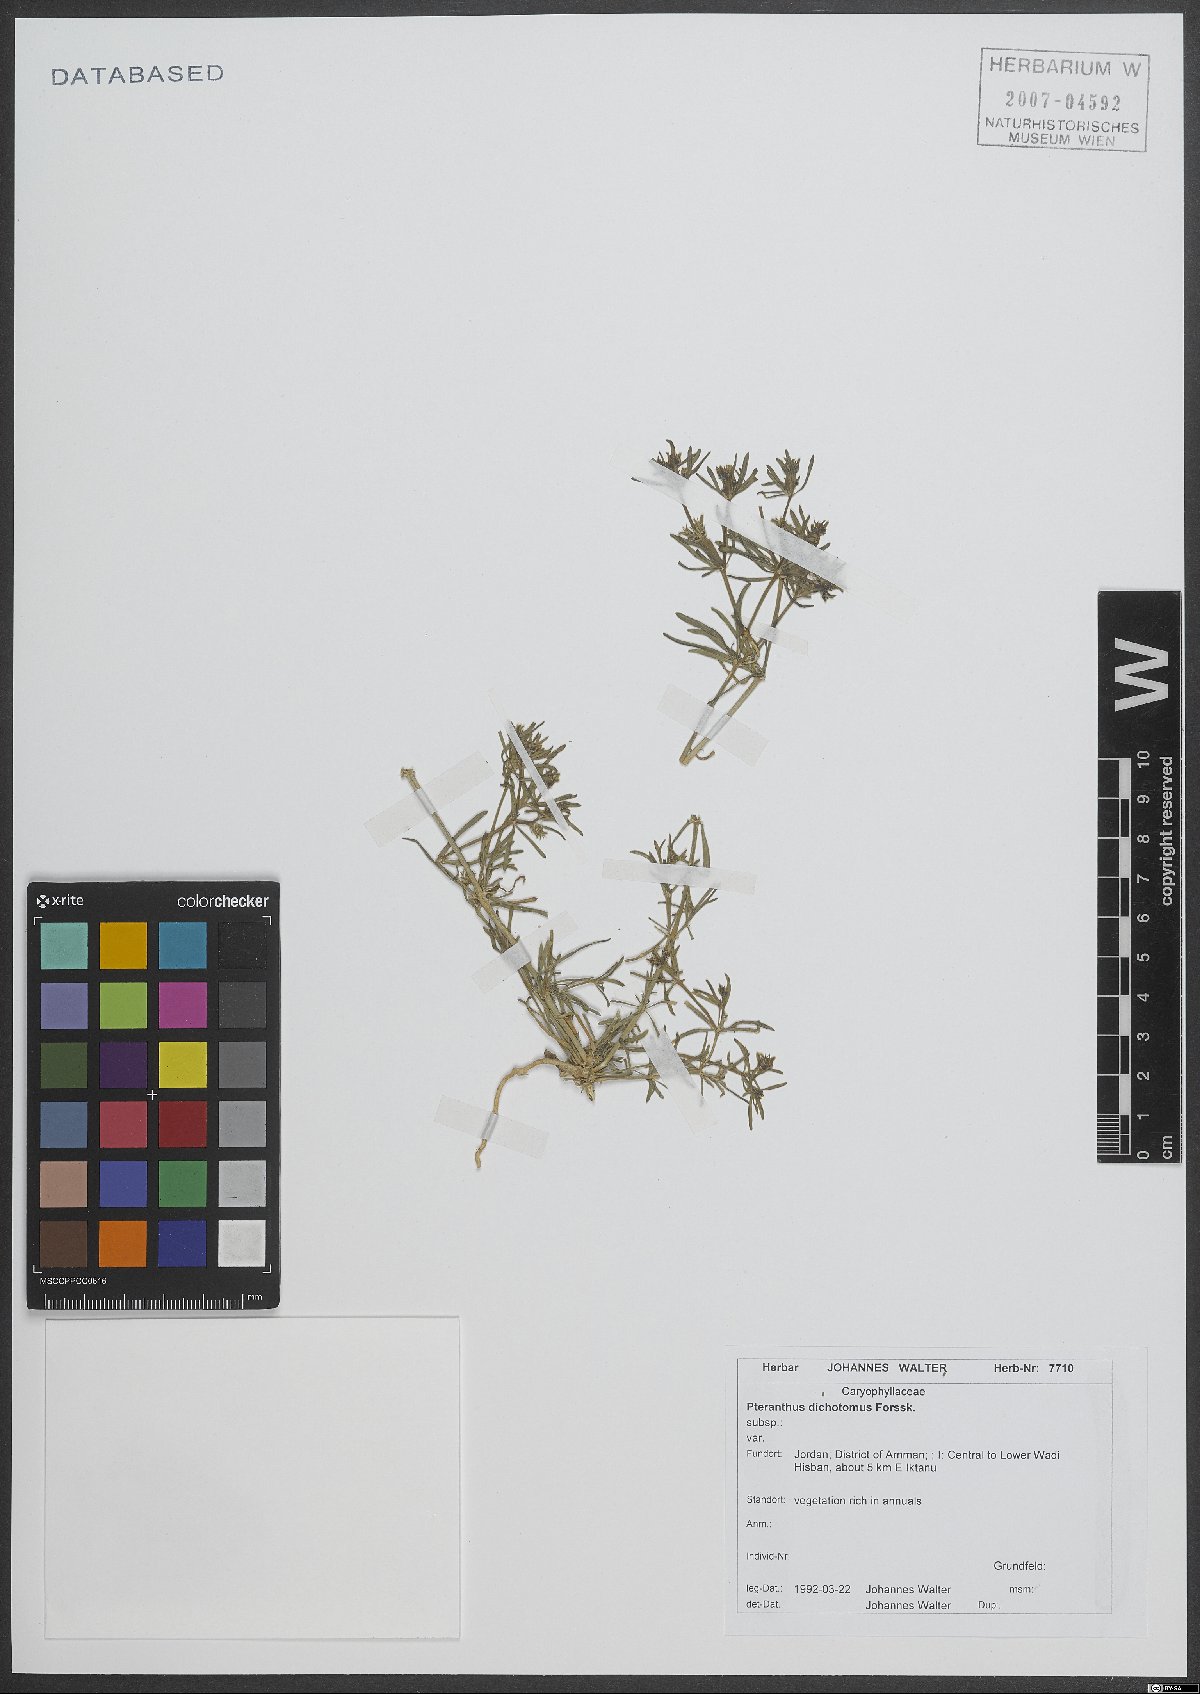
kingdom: Plantae
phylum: Tracheophyta
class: Magnoliopsida
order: Caryophyllales
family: Caryophyllaceae
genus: Pteranthus
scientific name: Pteranthus dichotomus
